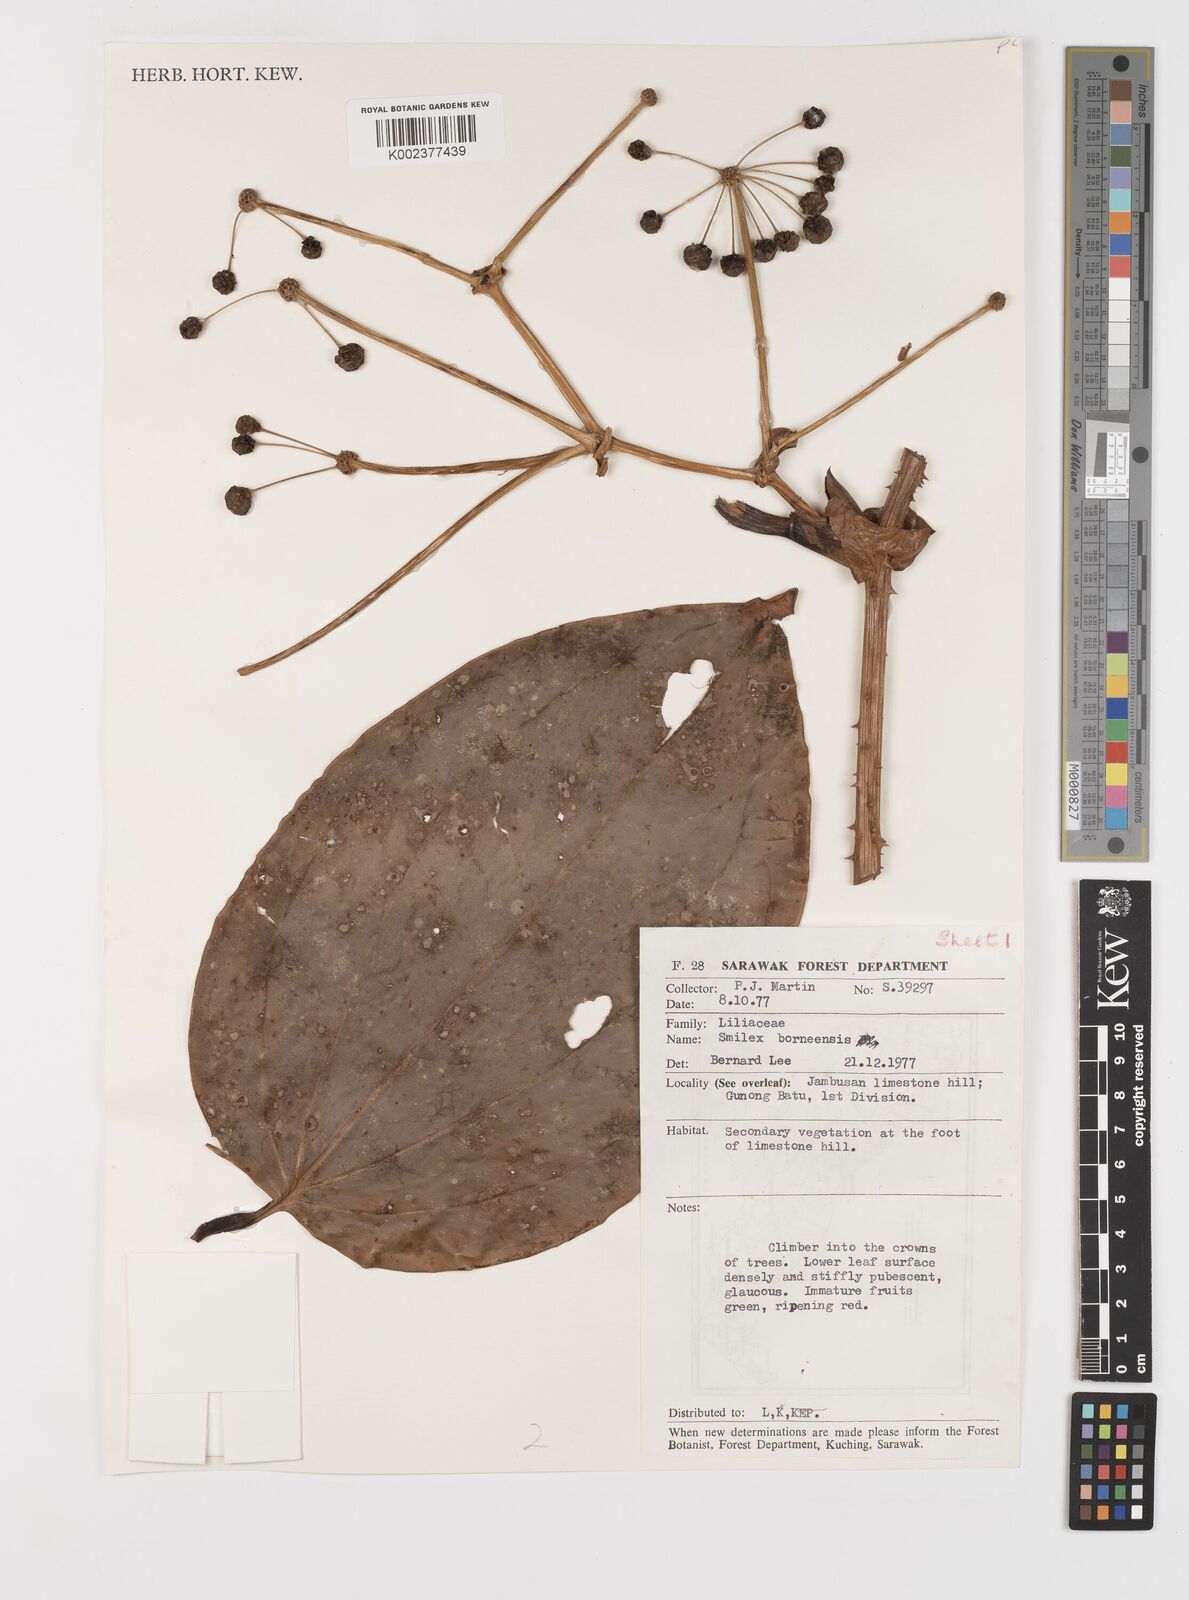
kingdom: Plantae
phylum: Tracheophyta
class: Liliopsida
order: Liliales
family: Smilacaceae
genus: Smilax
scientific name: Smilax borneensis
